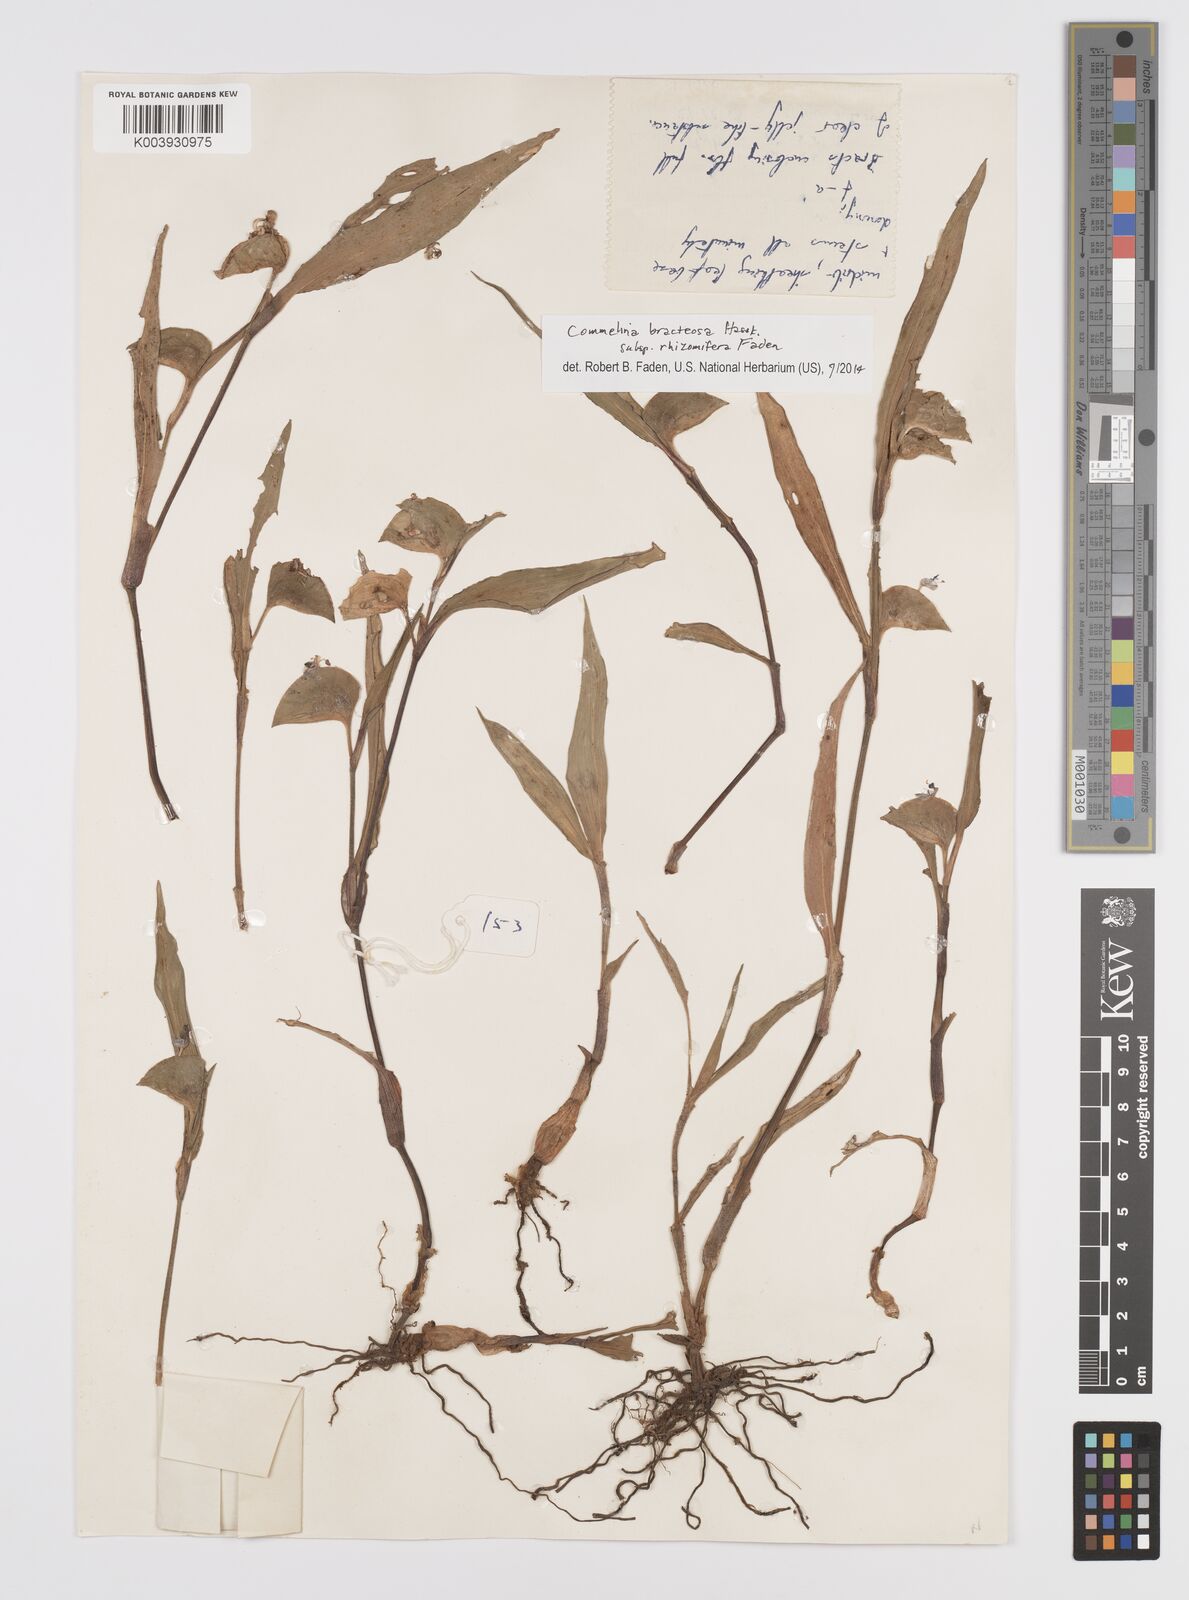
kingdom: Plantae
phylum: Tracheophyta
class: Liliopsida
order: Commelinales
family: Commelinaceae
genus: Commelina
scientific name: Commelina bracteosa
